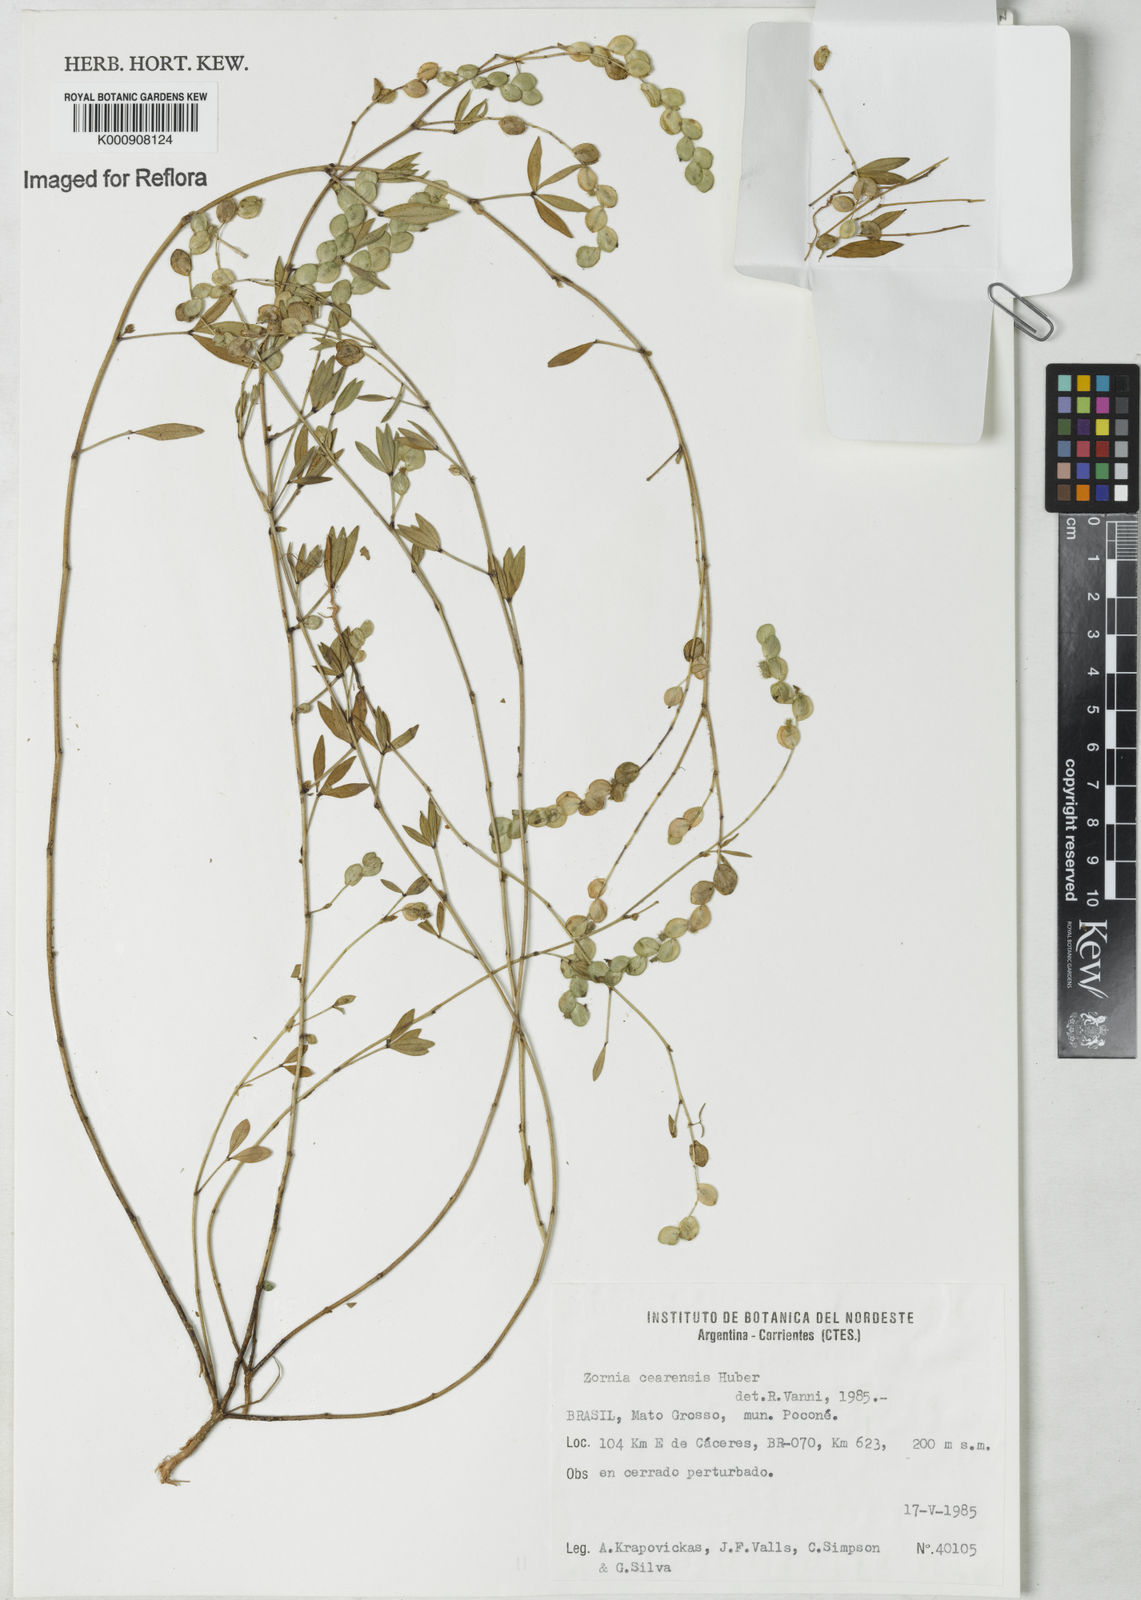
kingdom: Plantae
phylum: Tracheophyta
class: Magnoliopsida
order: Fabales
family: Fabaceae
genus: Zornia
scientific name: Zornia cearensis
